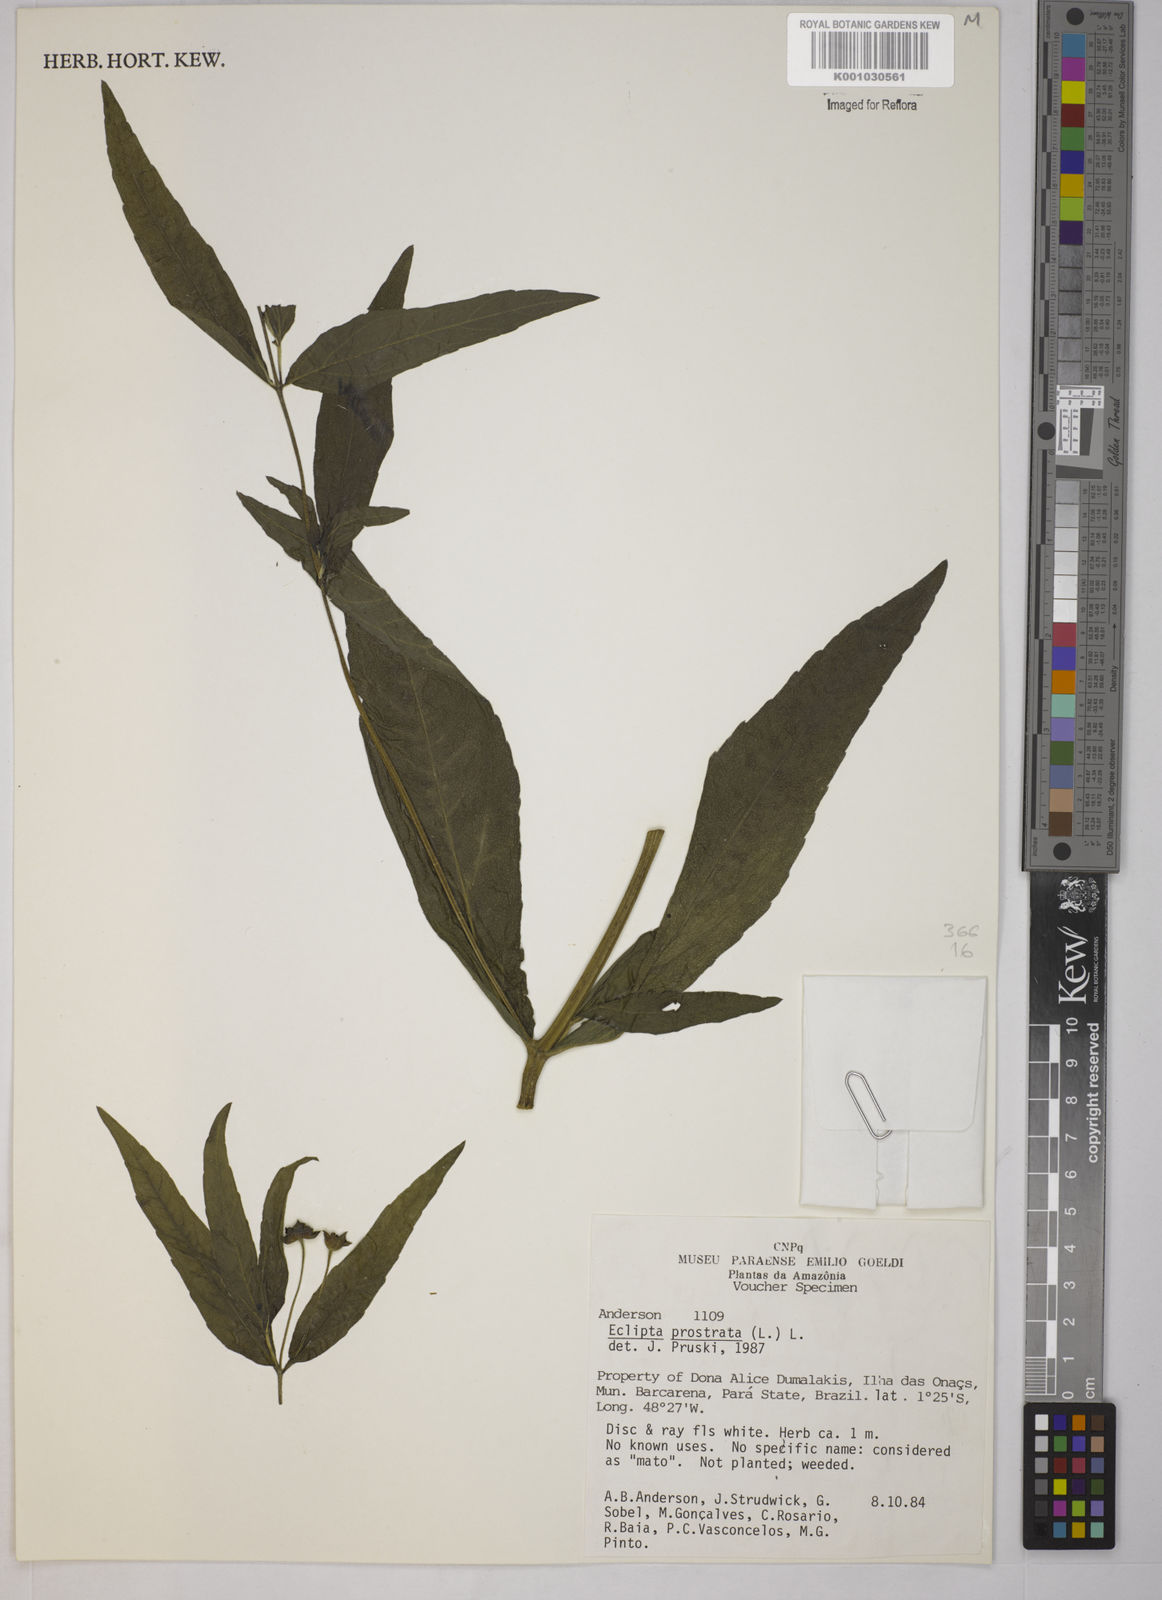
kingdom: Plantae
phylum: Tracheophyta
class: Magnoliopsida
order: Asterales
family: Asteraceae
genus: Eclipta
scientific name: Eclipta prostrata
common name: False daisy
